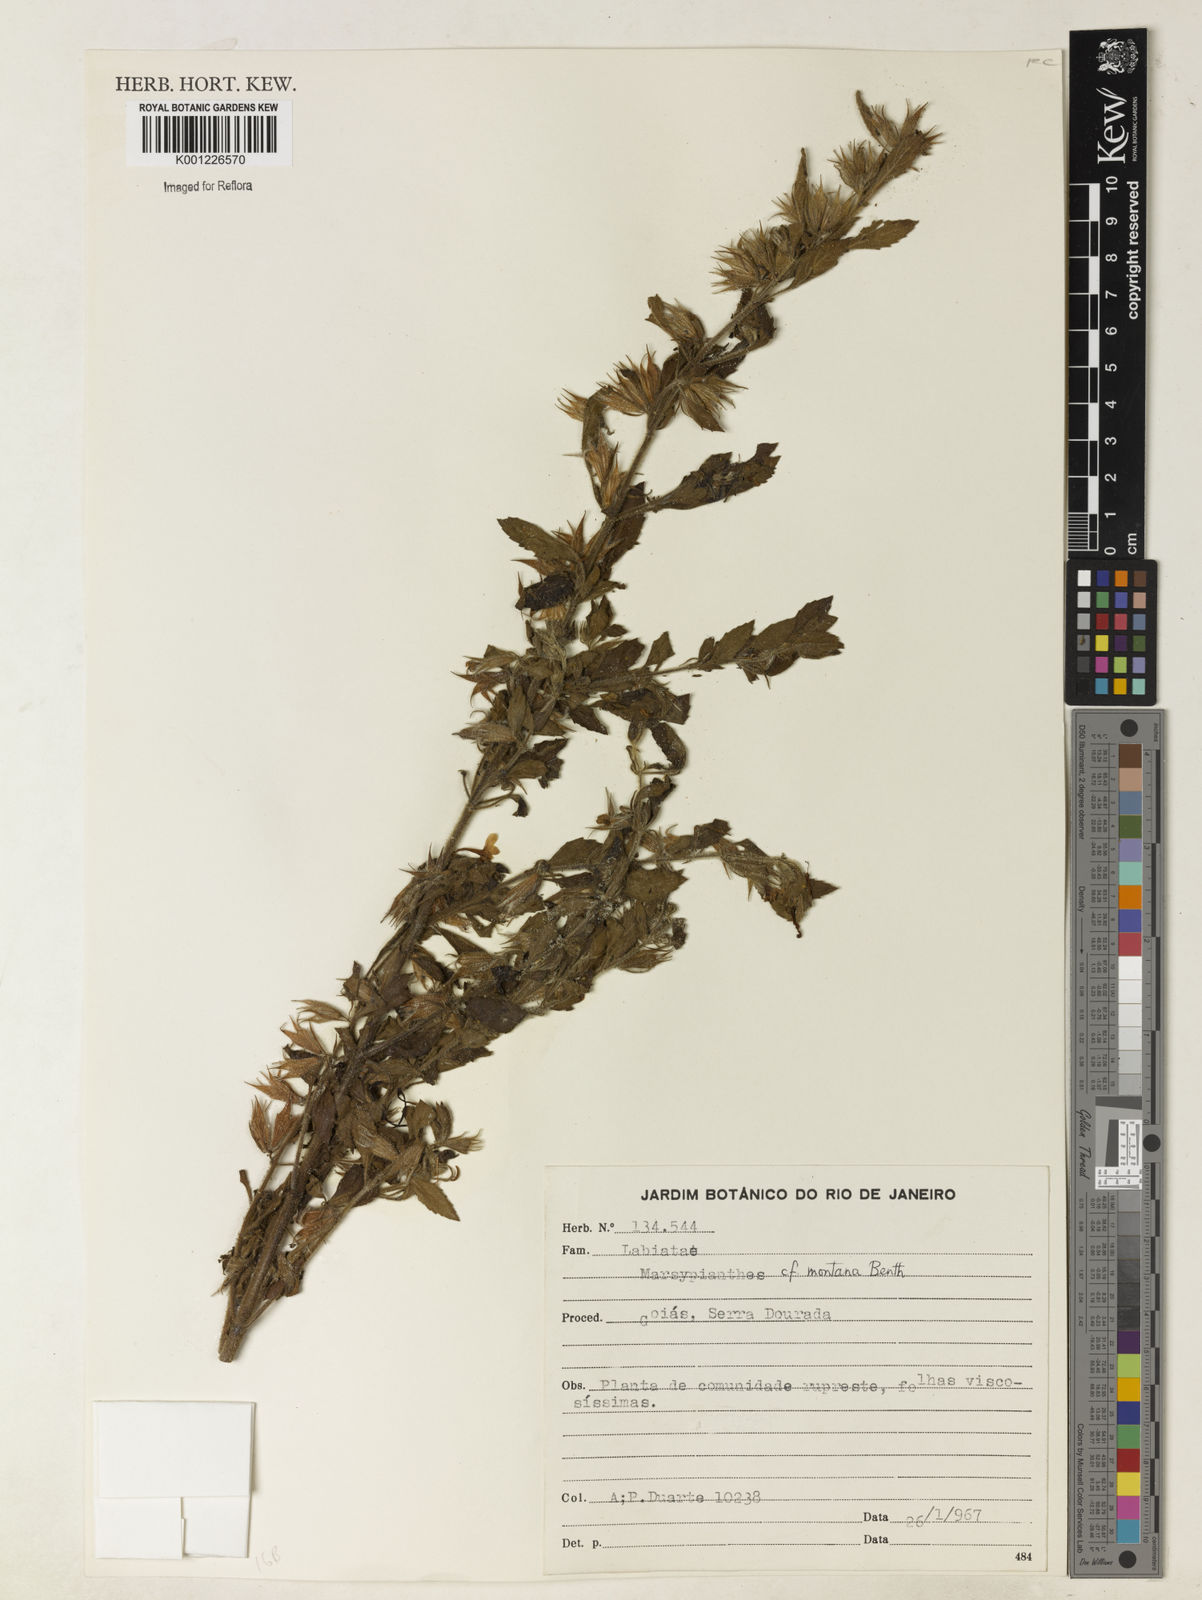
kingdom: Plantae
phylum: Tracheophyta
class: Magnoliopsida
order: Lamiales
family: Lamiaceae
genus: Marsypianthes
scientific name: Marsypianthes burchellii
